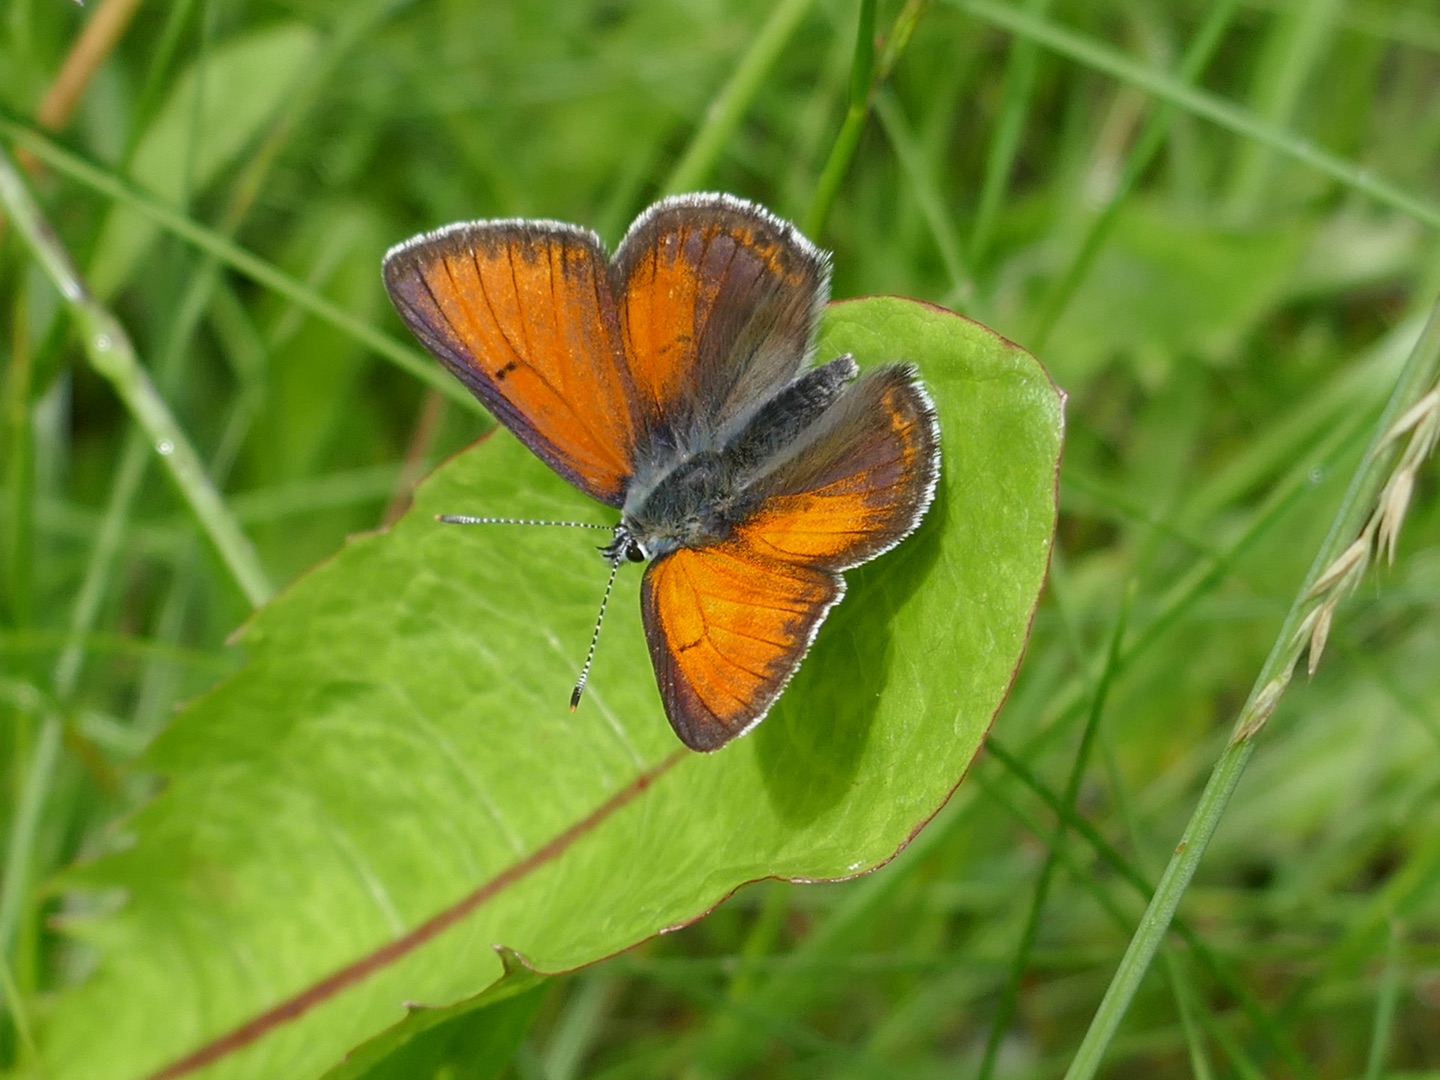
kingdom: Animalia
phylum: Arthropoda
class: Insecta
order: Lepidoptera
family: Lycaenidae
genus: Palaeochrysophanus
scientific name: Palaeochrysophanus hippothoe
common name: Violetrandet ildfugl
